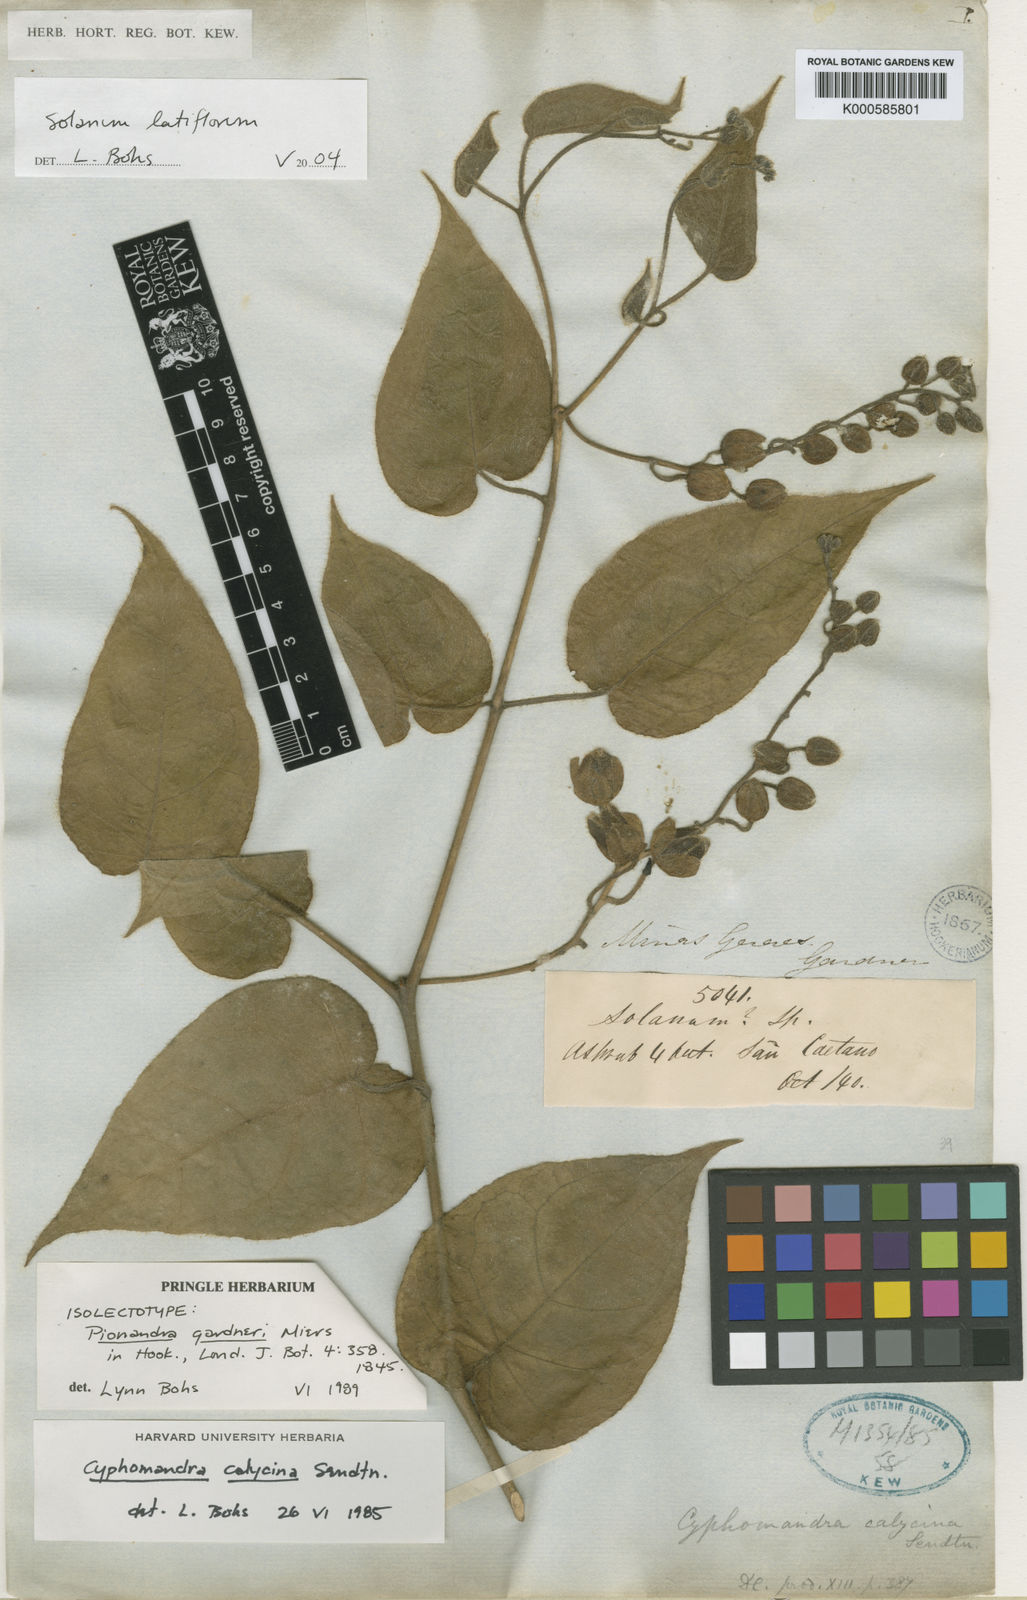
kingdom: Plantae
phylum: Tracheophyta
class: Magnoliopsida
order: Solanales
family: Solanaceae
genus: Solanum
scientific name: Solanum latiflorum
